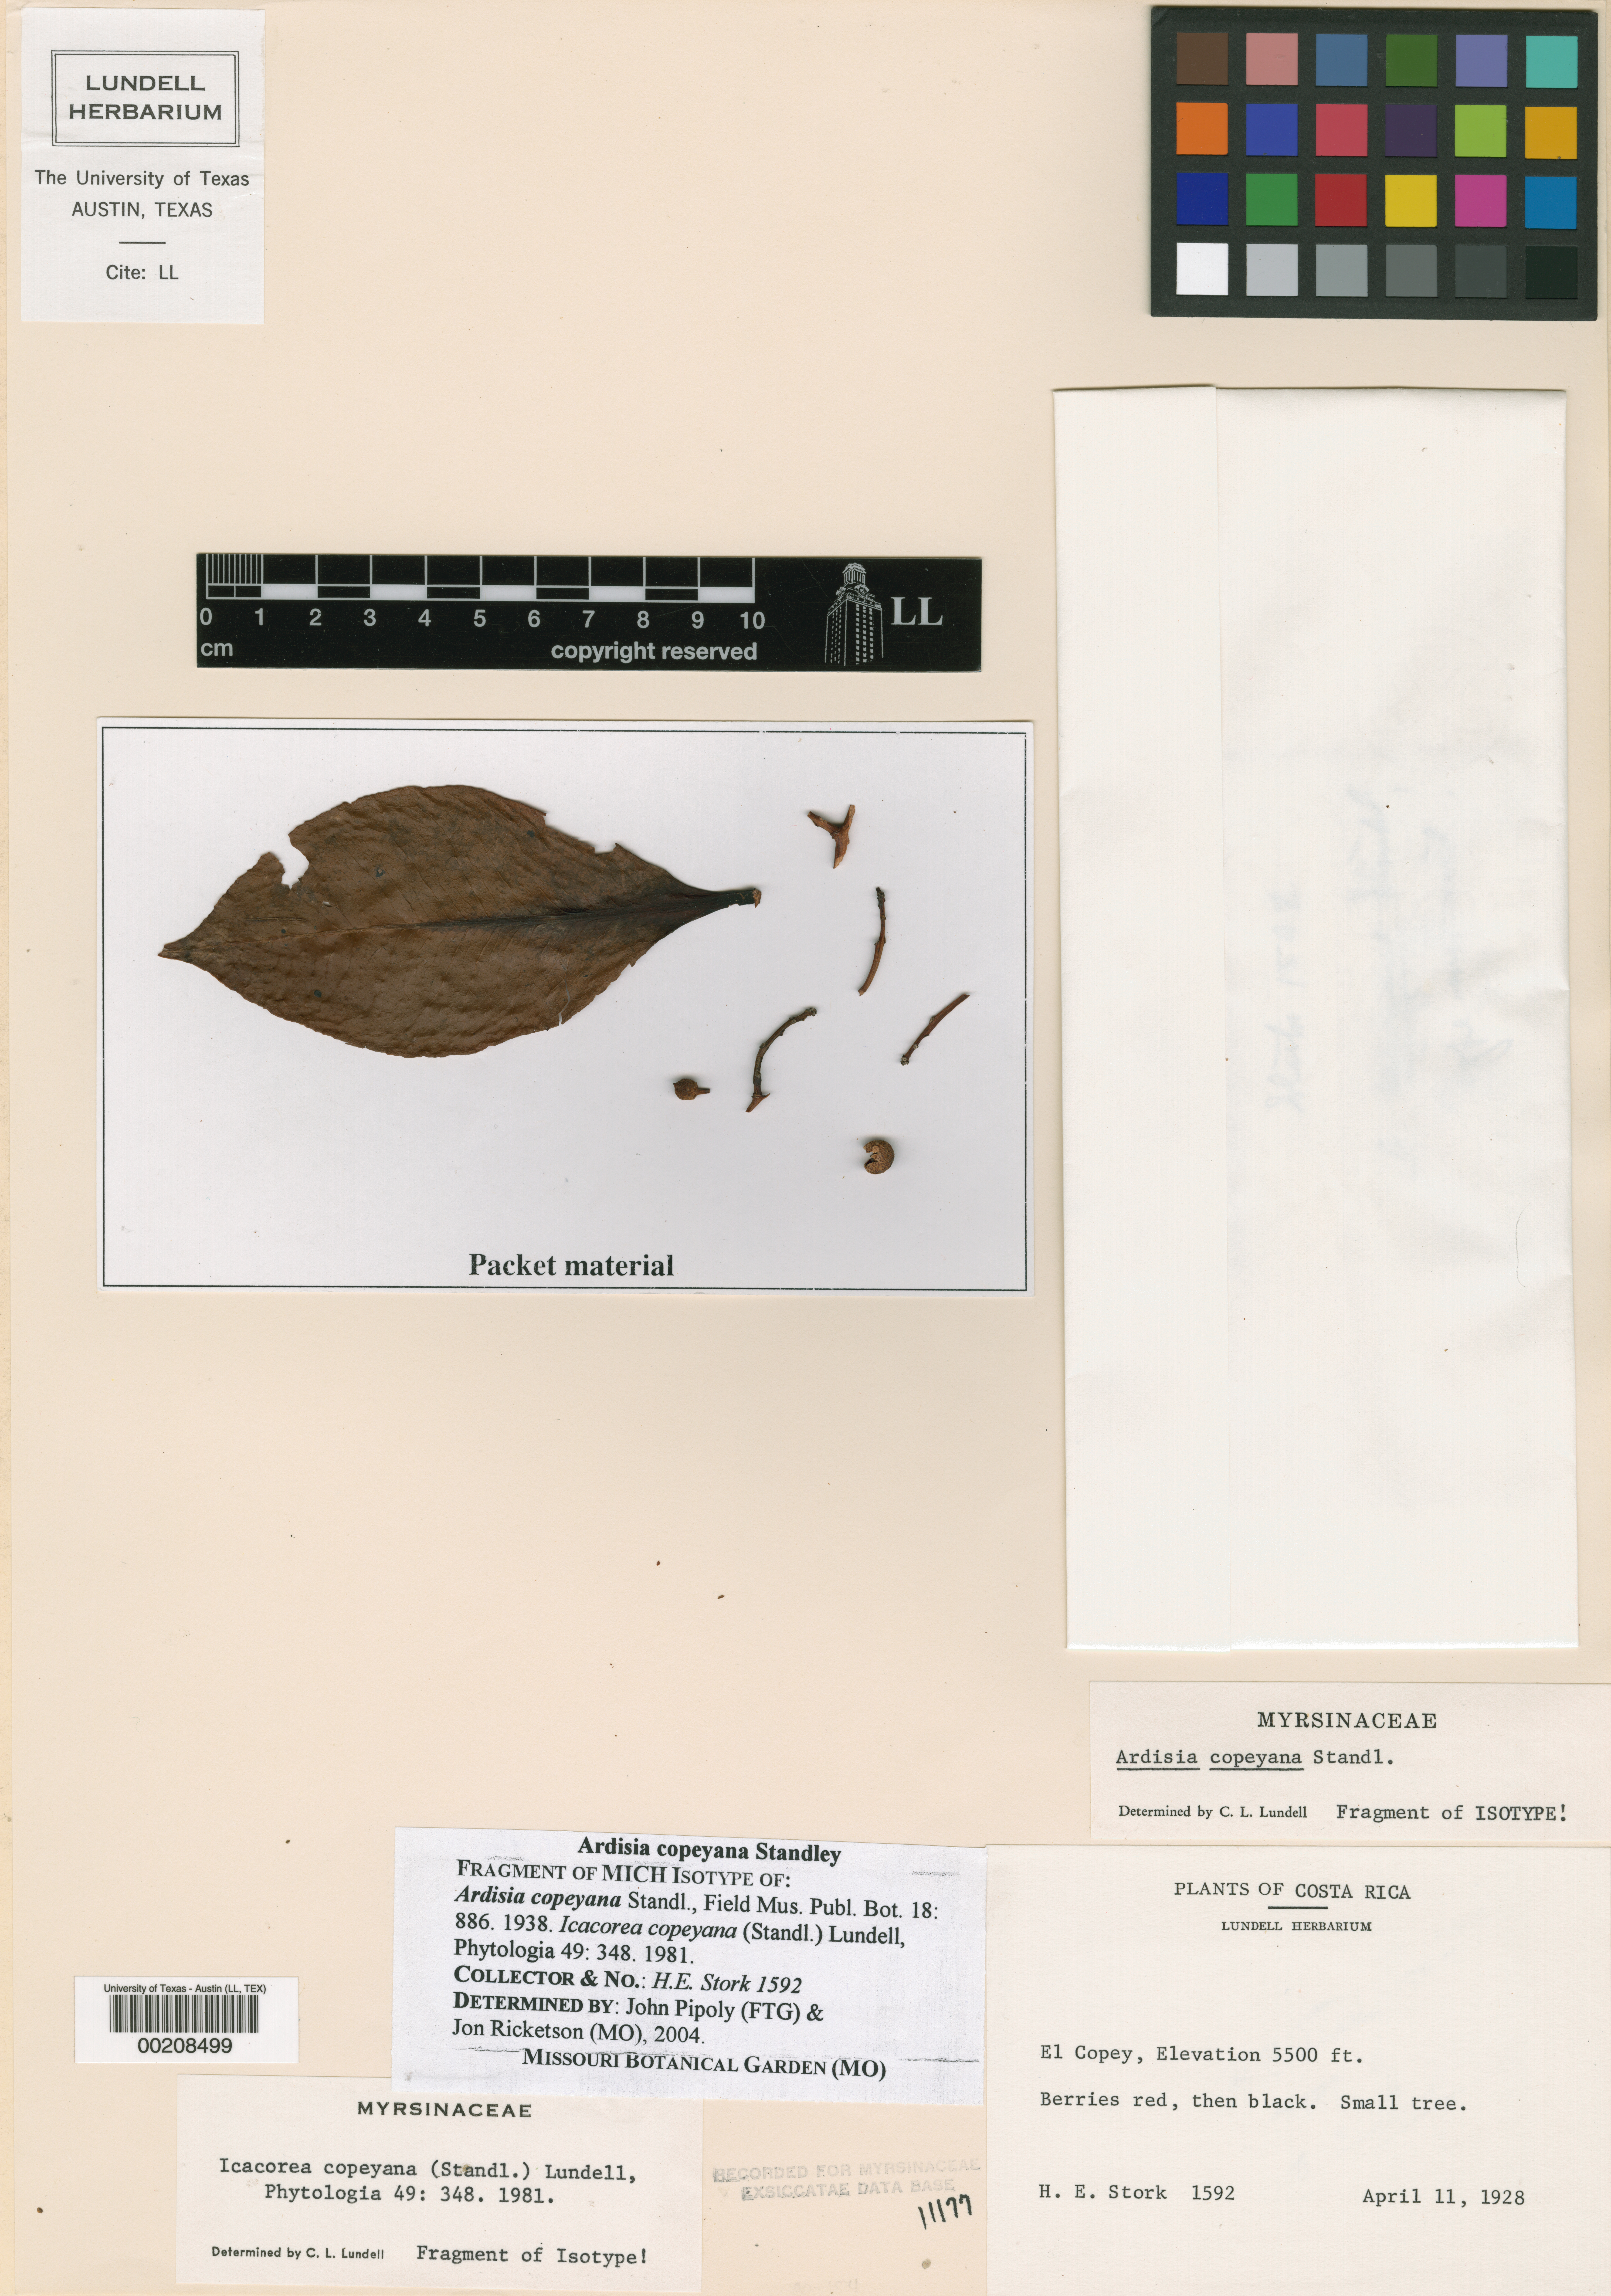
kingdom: Plantae
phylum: Tracheophyta
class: Magnoliopsida
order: Ericales
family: Primulaceae
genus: Ardisia
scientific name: Ardisia copeyana
